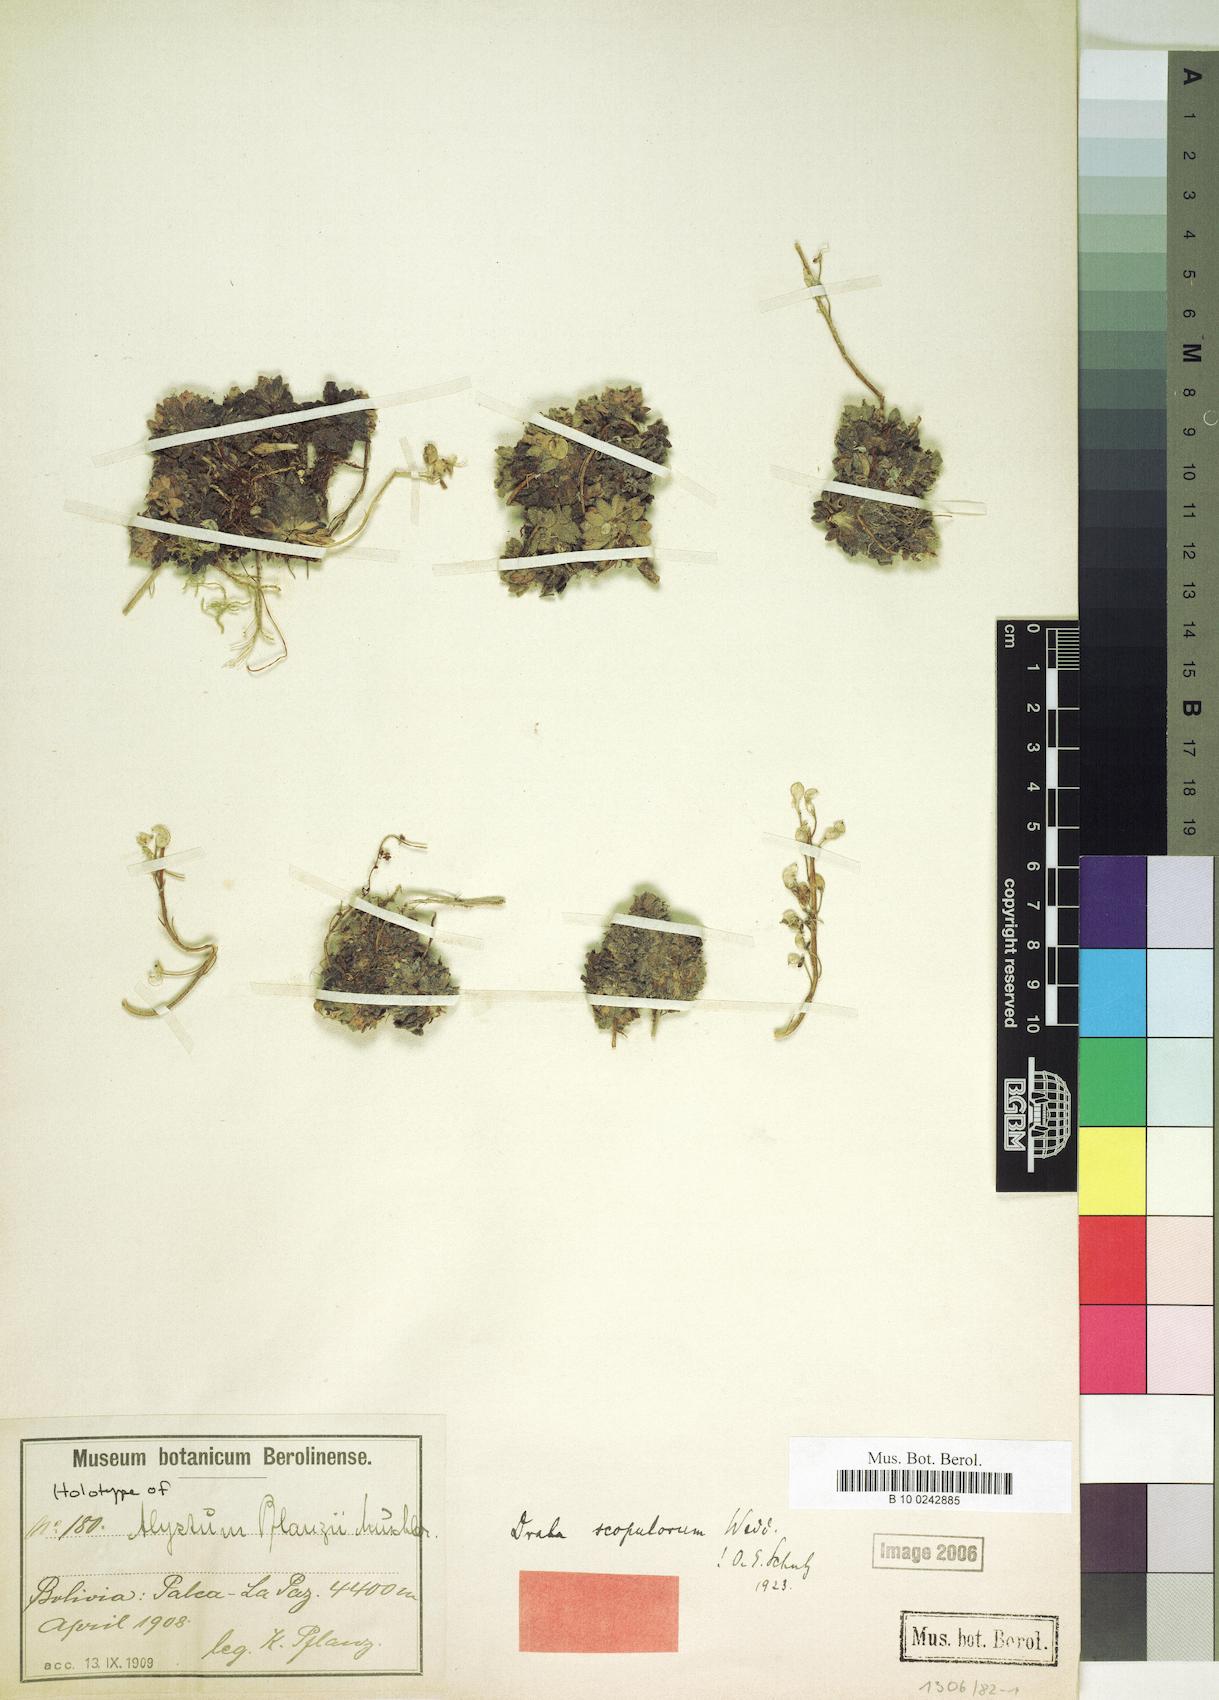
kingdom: Plantae
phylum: Tracheophyta
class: Magnoliopsida
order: Brassicales
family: Brassicaceae
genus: Draba
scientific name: Draba scopulorum
